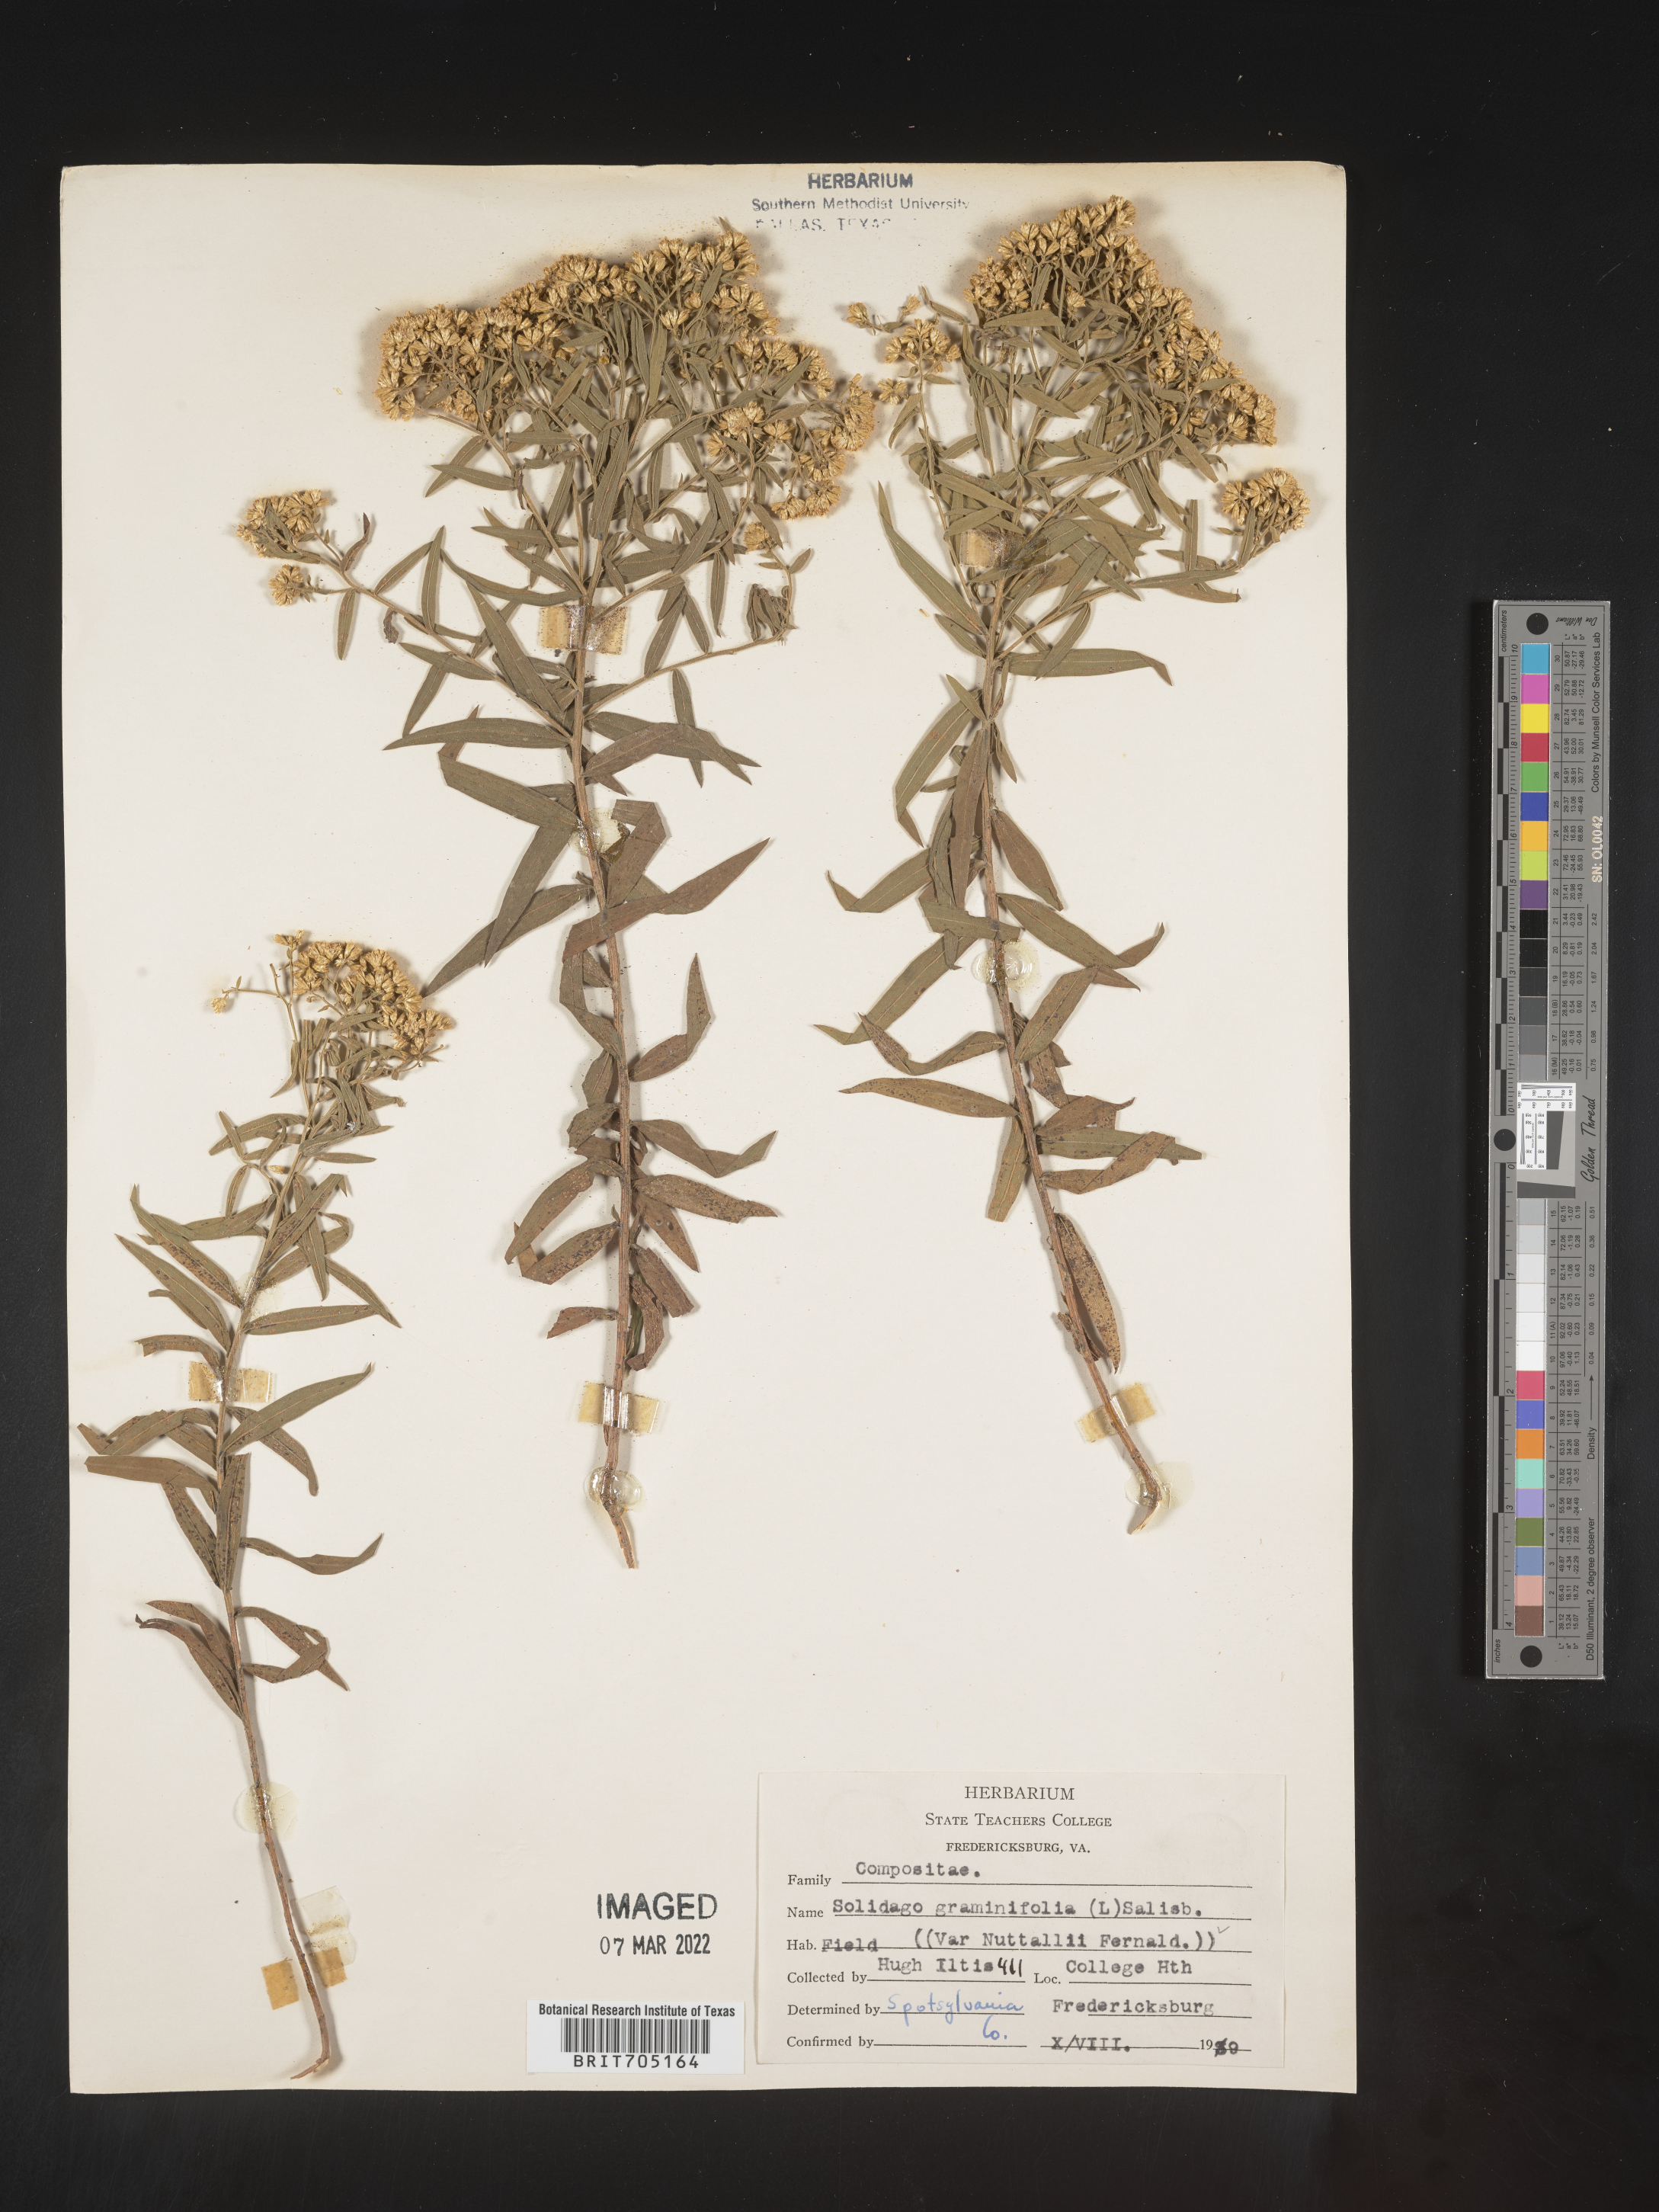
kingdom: Plantae
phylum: Tracheophyta
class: Magnoliopsida
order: Asterales
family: Asteraceae
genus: Euthamia
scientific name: Euthamia graminifolia
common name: Common goldentop
